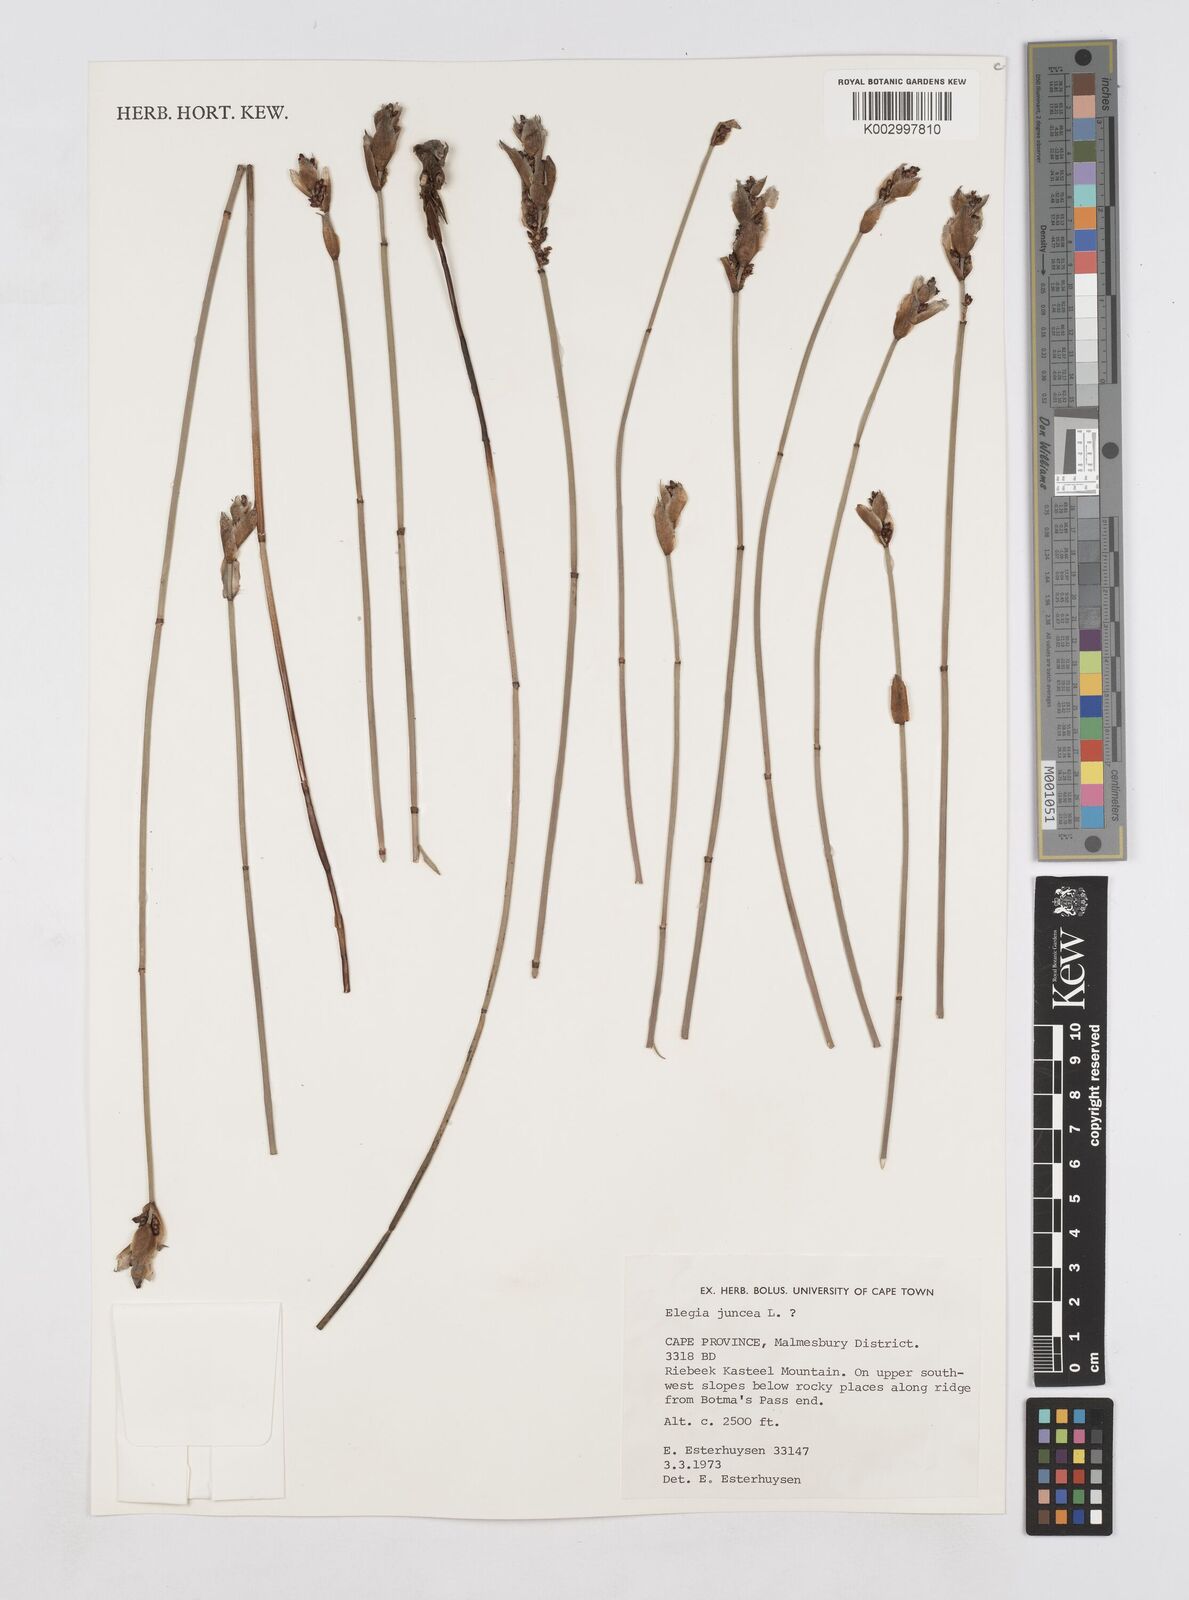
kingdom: Plantae
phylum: Tracheophyta
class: Liliopsida
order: Poales
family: Restionaceae
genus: Elegia
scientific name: Elegia juncea
